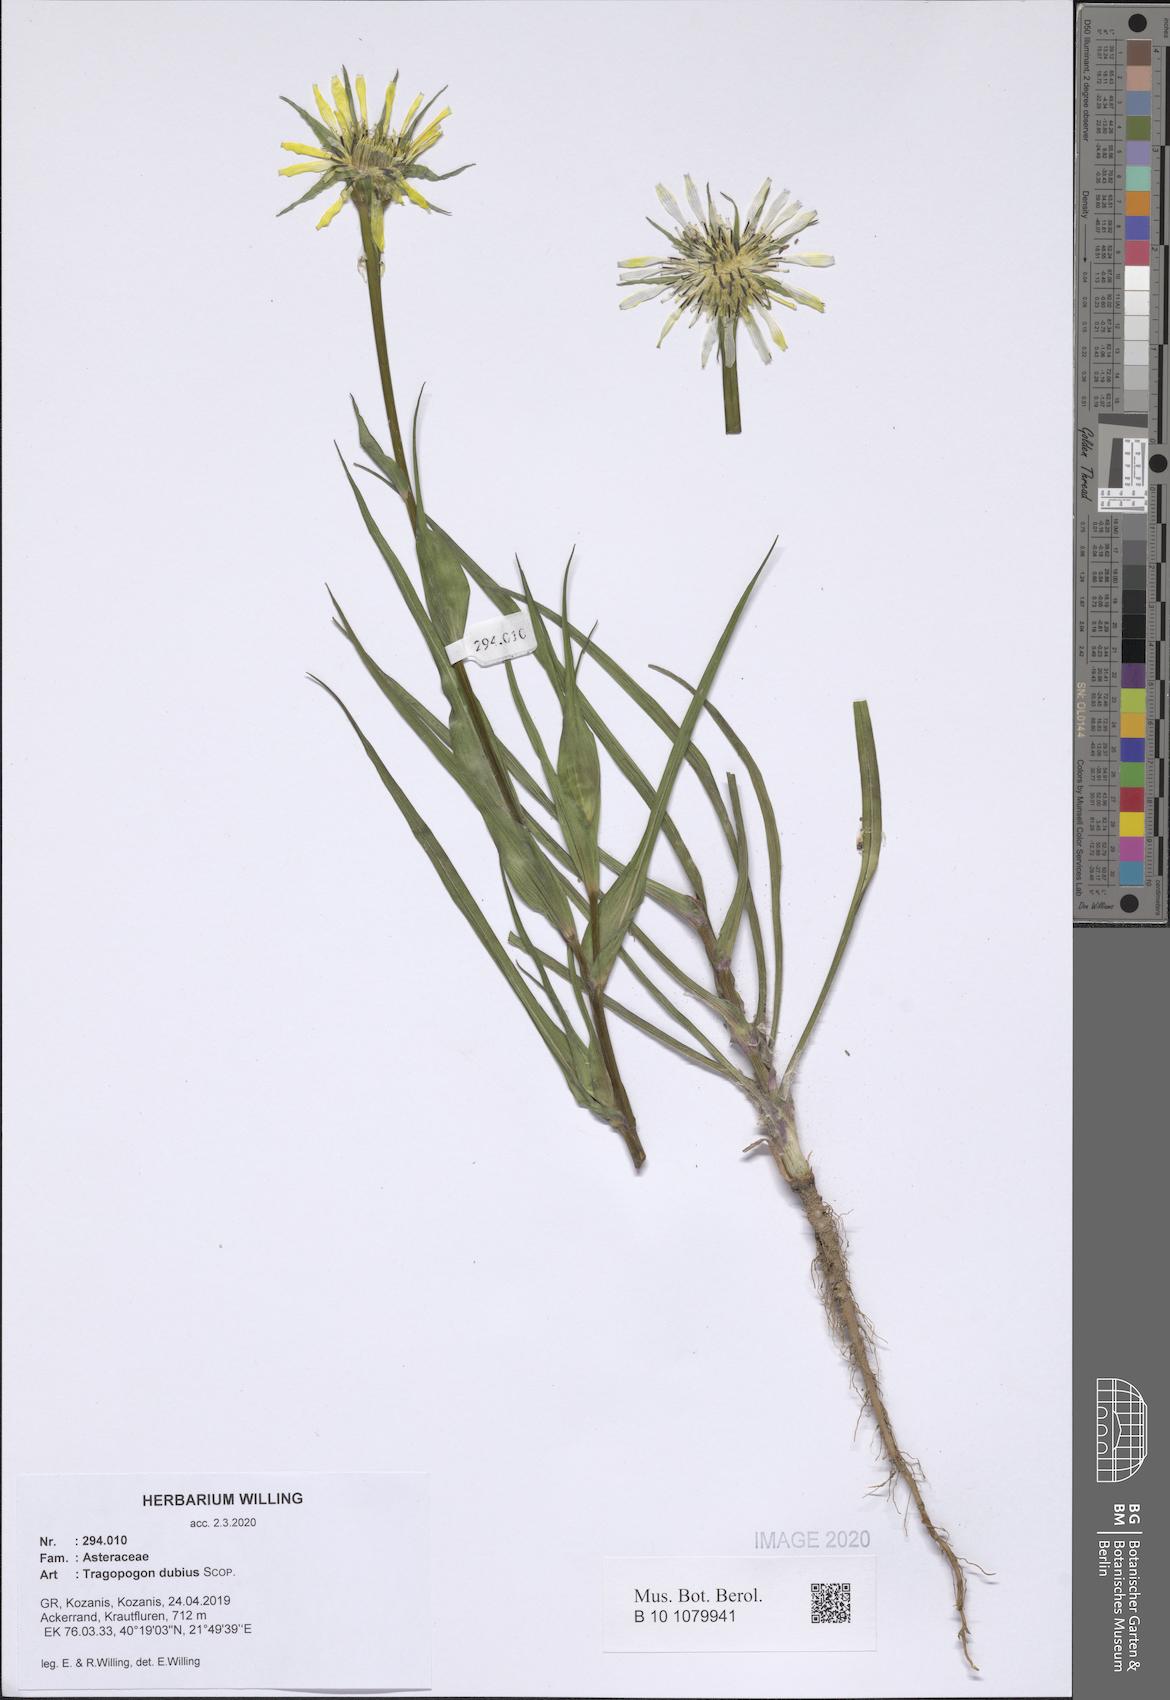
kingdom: Plantae
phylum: Tracheophyta
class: Magnoliopsida
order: Asterales
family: Asteraceae
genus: Tragopogon
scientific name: Tragopogon dubius
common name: Yellow salsify
